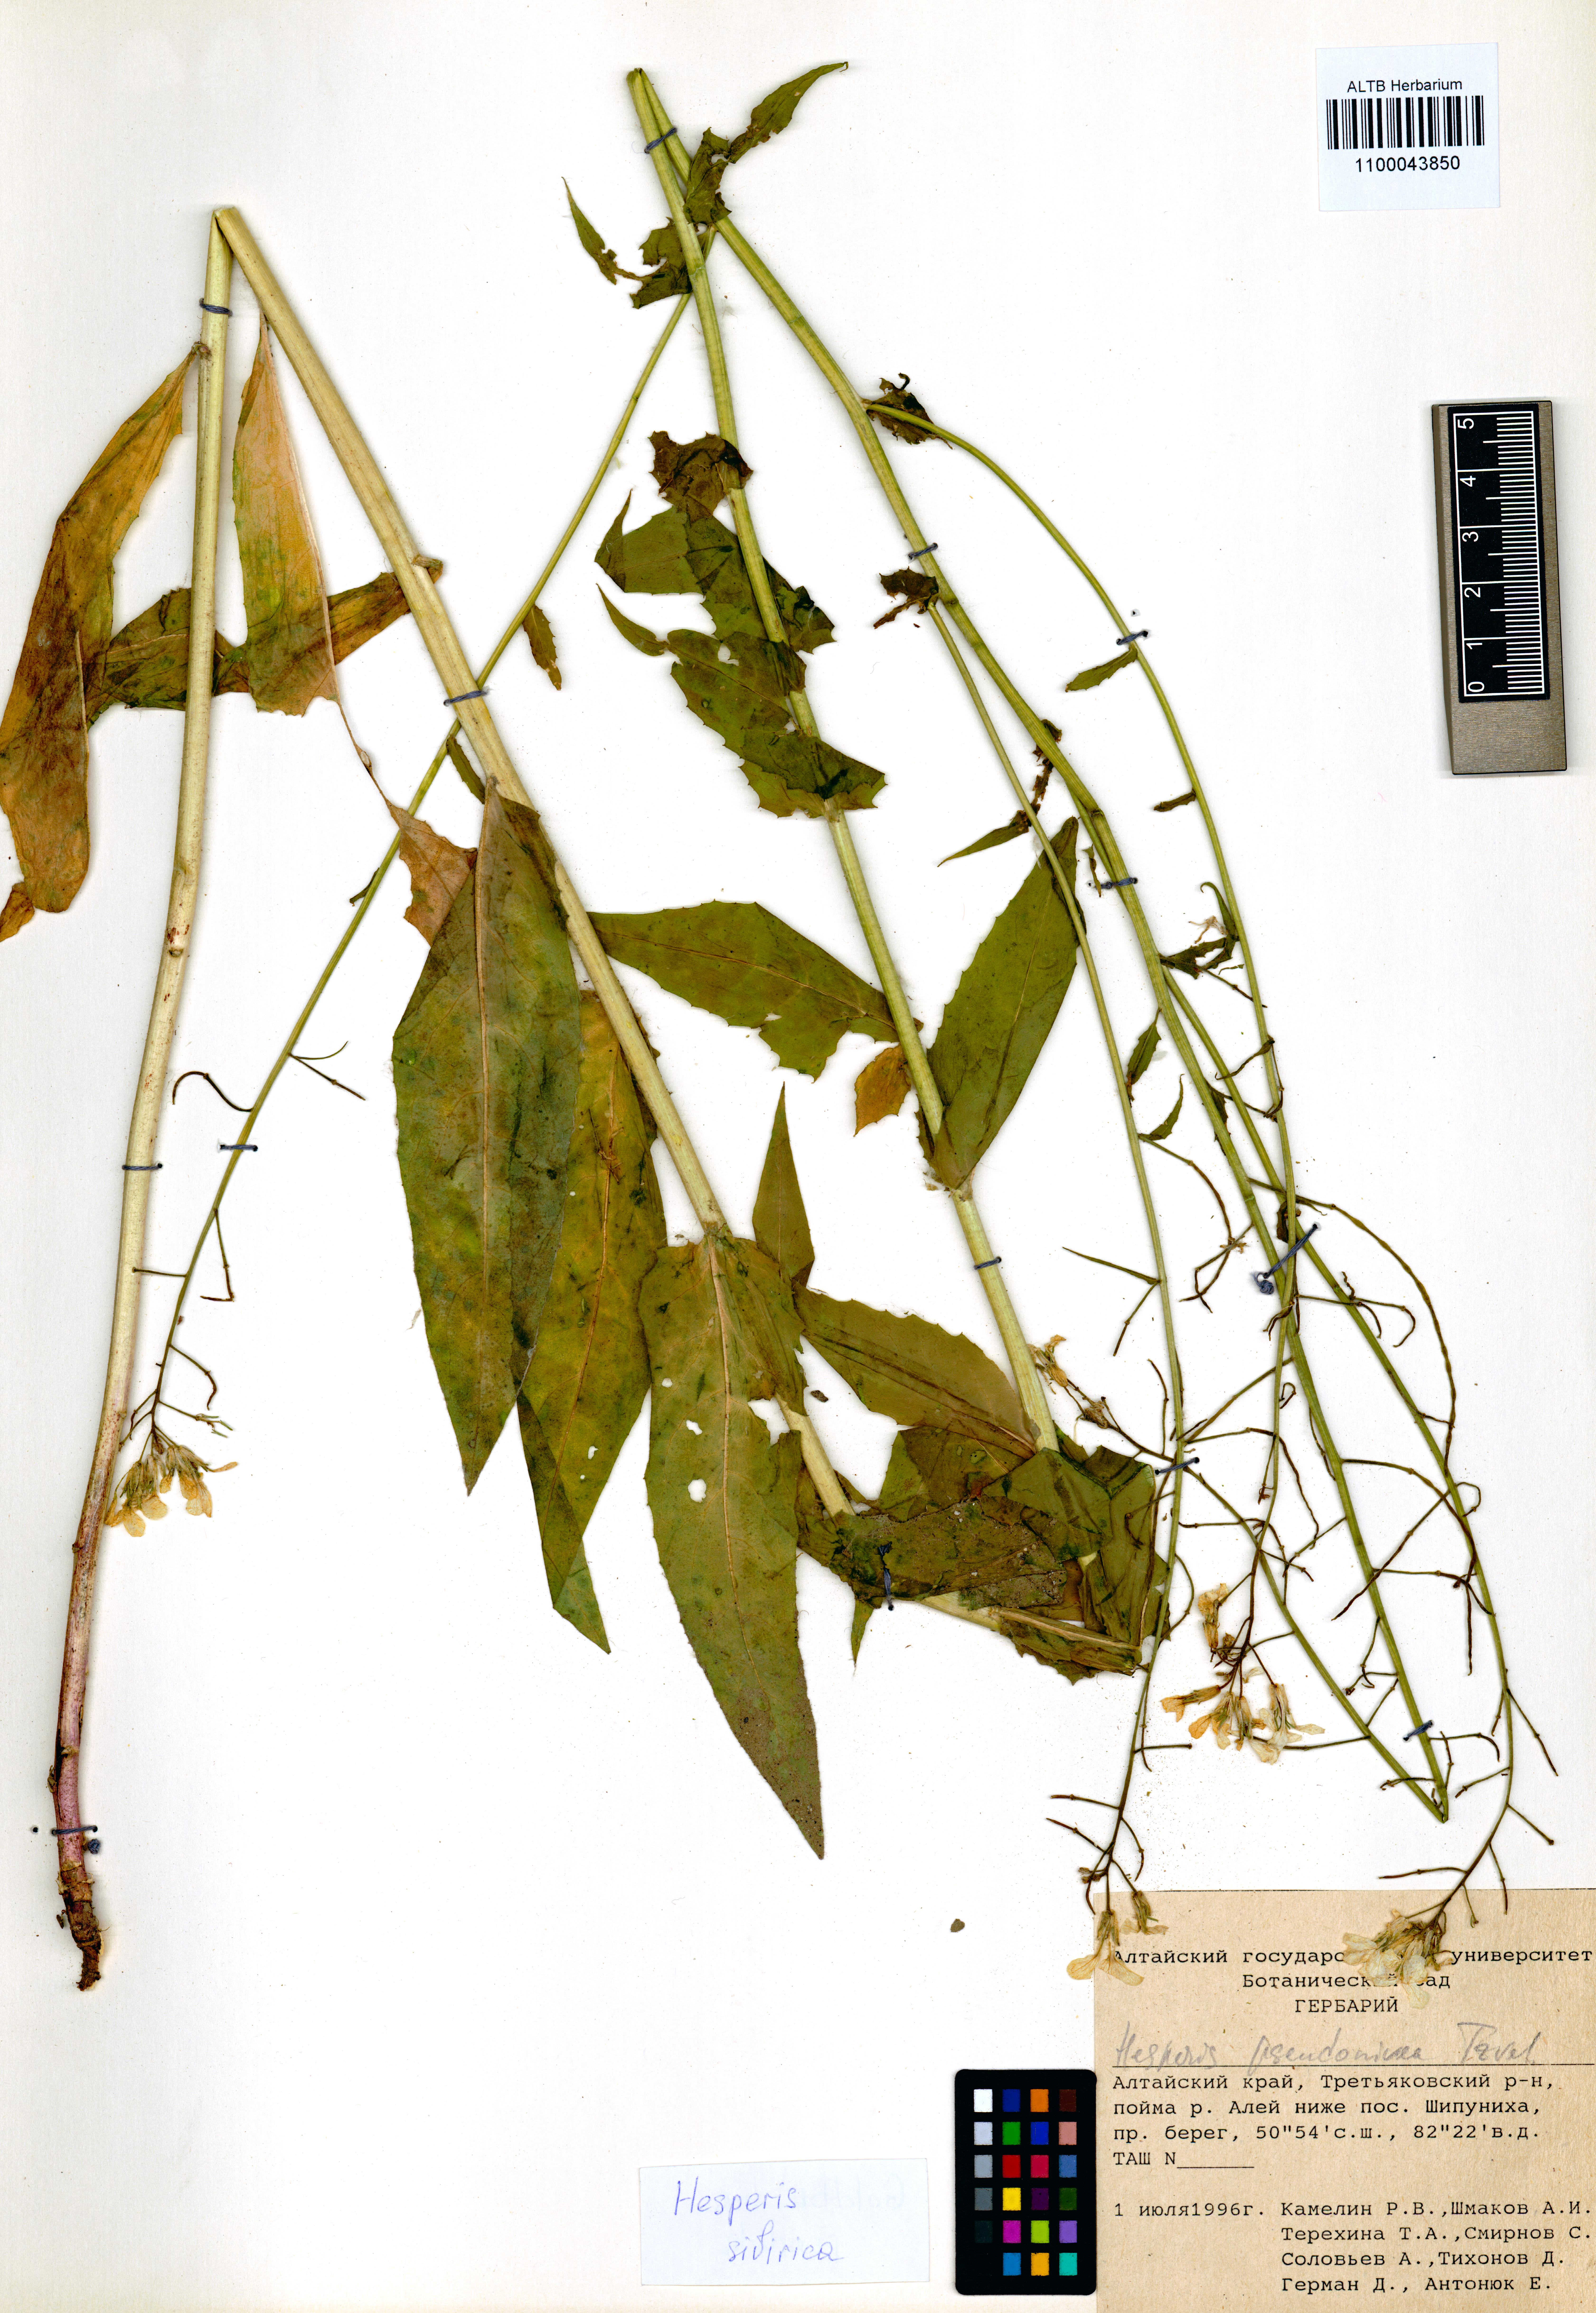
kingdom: Plantae
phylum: Tracheophyta
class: Magnoliopsida
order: Brassicales
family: Brassicaceae
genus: Hesperis
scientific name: Hesperis sibirica
